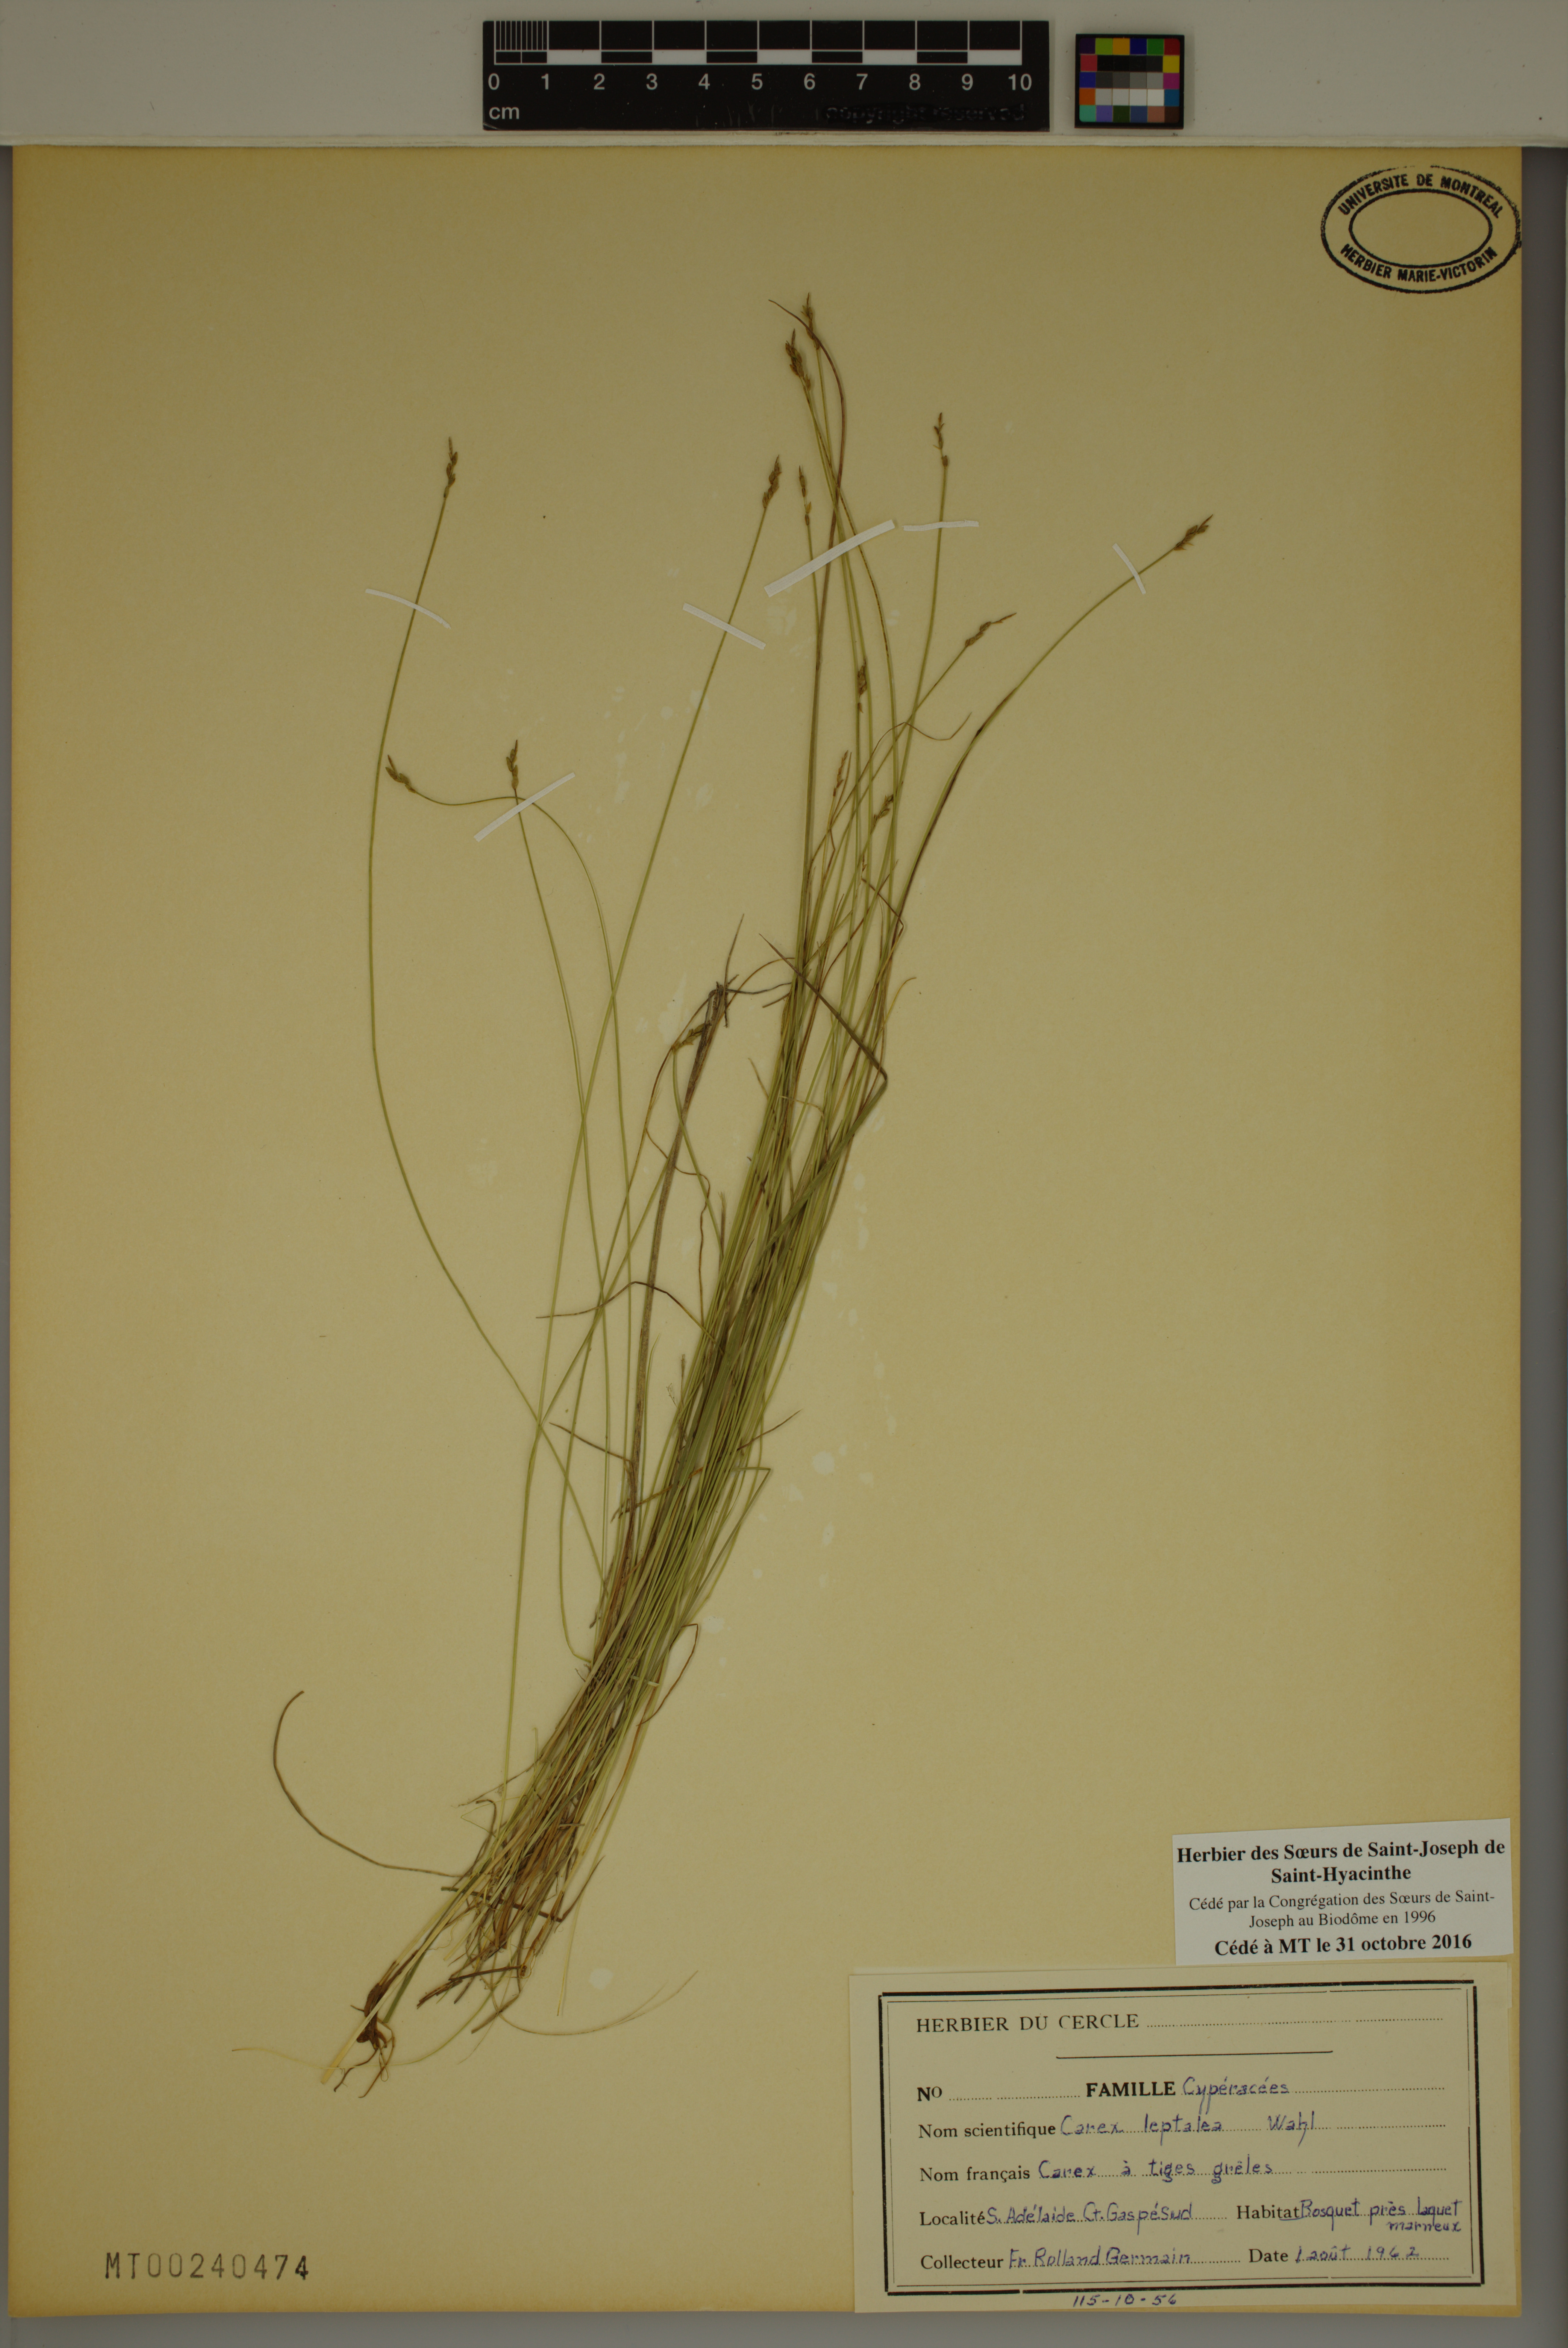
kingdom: Plantae
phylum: Tracheophyta
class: Liliopsida
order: Poales
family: Cyperaceae
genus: Carex
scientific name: Carex leptalea
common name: Bristly-stalked sedge
